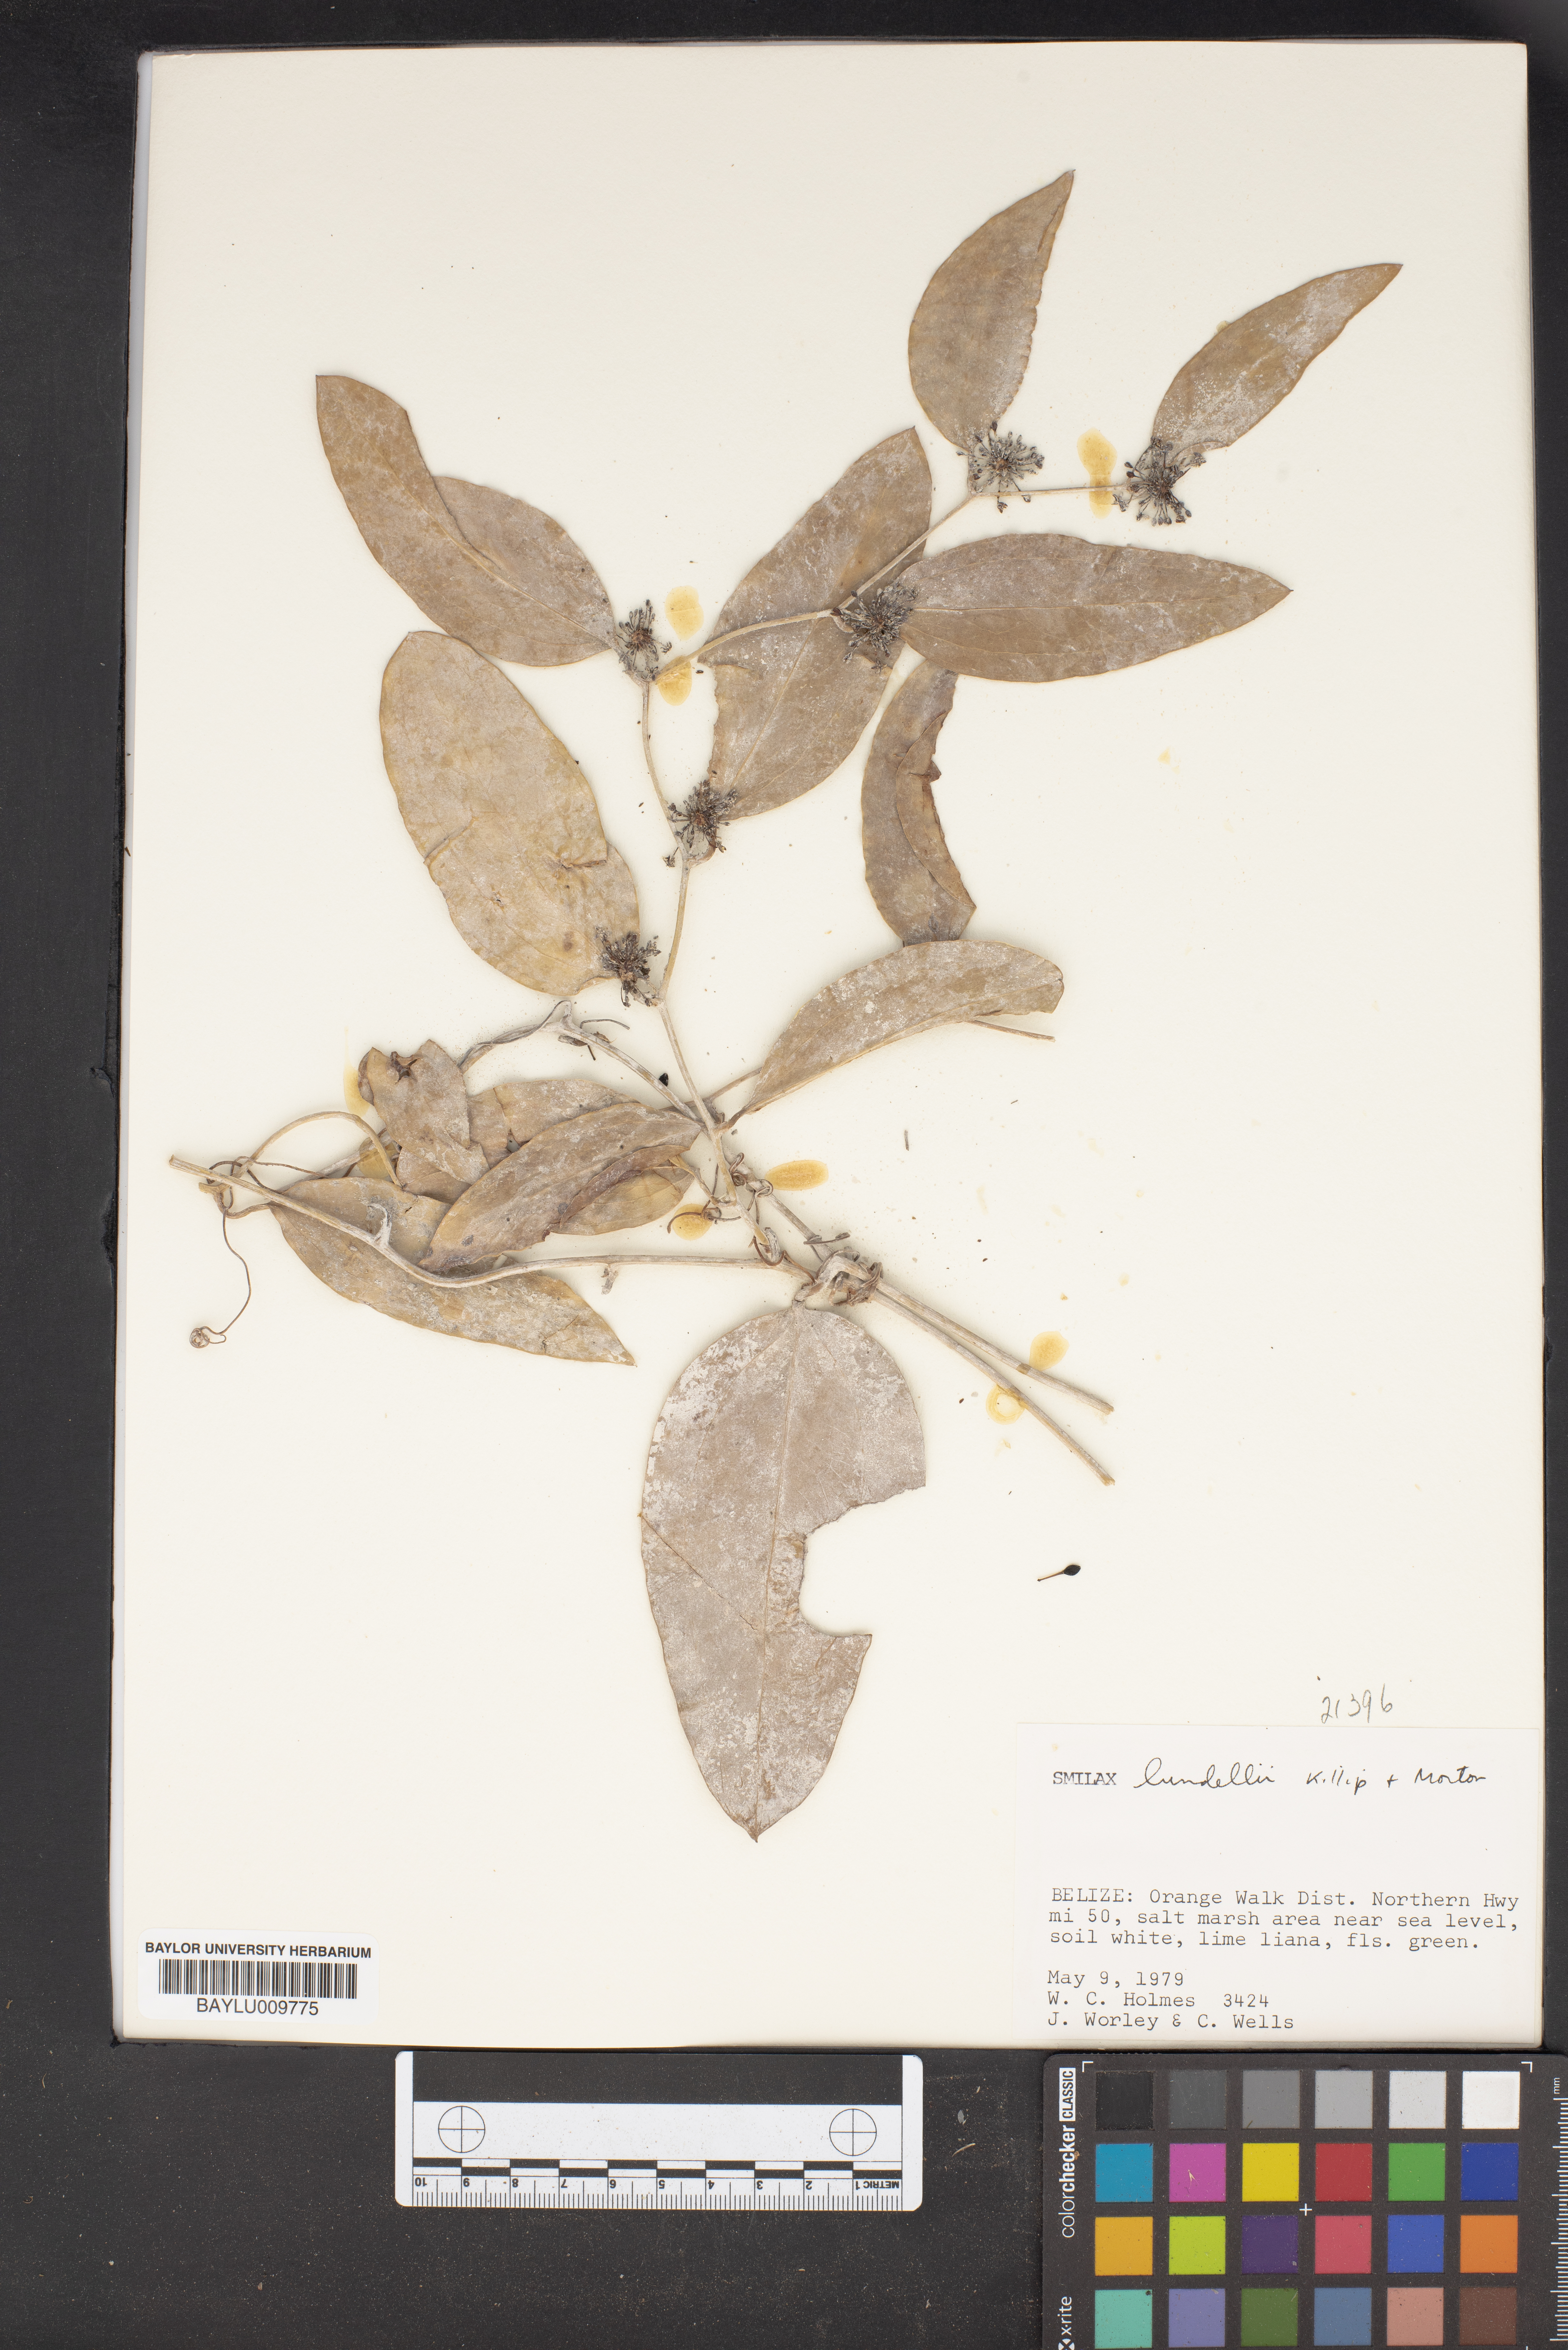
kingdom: Plantae
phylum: Tracheophyta
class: Liliopsida
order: Liliales
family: Smilacaceae
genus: Smilax
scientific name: Smilax spinosa
